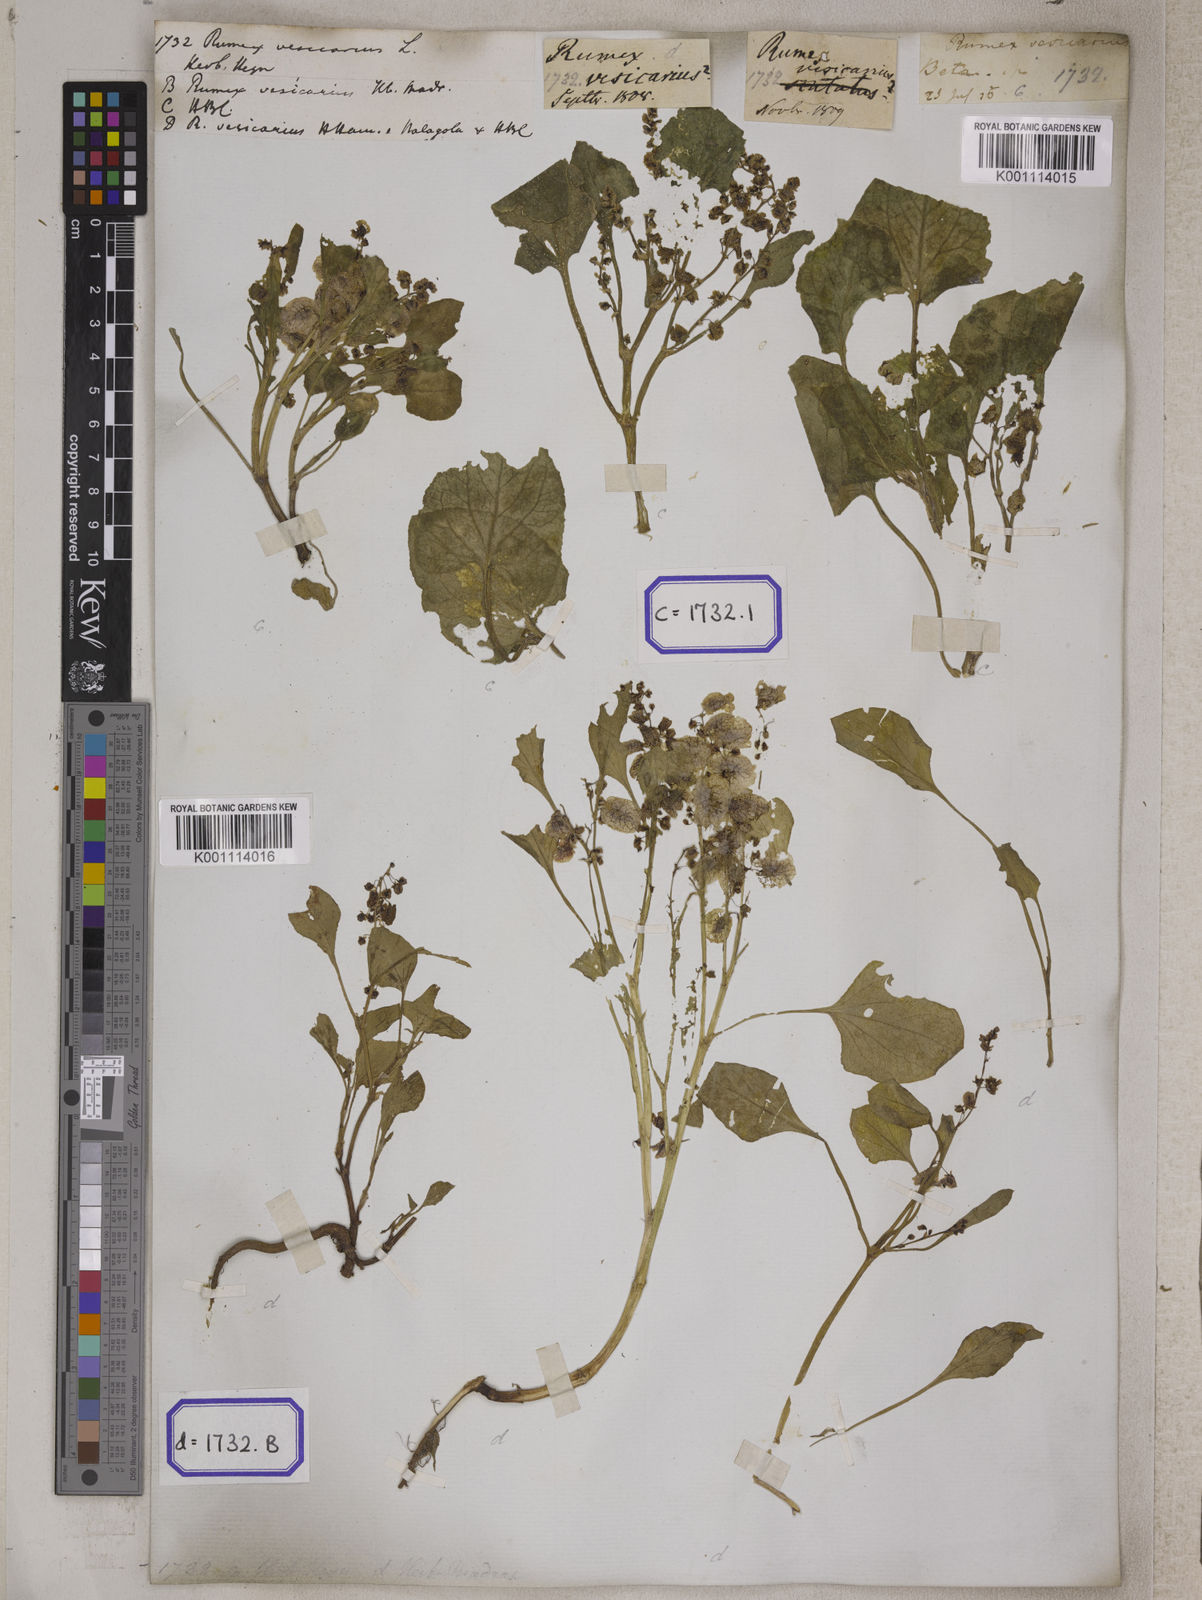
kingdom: Plantae
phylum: Tracheophyta
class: Magnoliopsida
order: Caryophyllales
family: Polygonaceae
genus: Rumex
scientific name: Rumex
